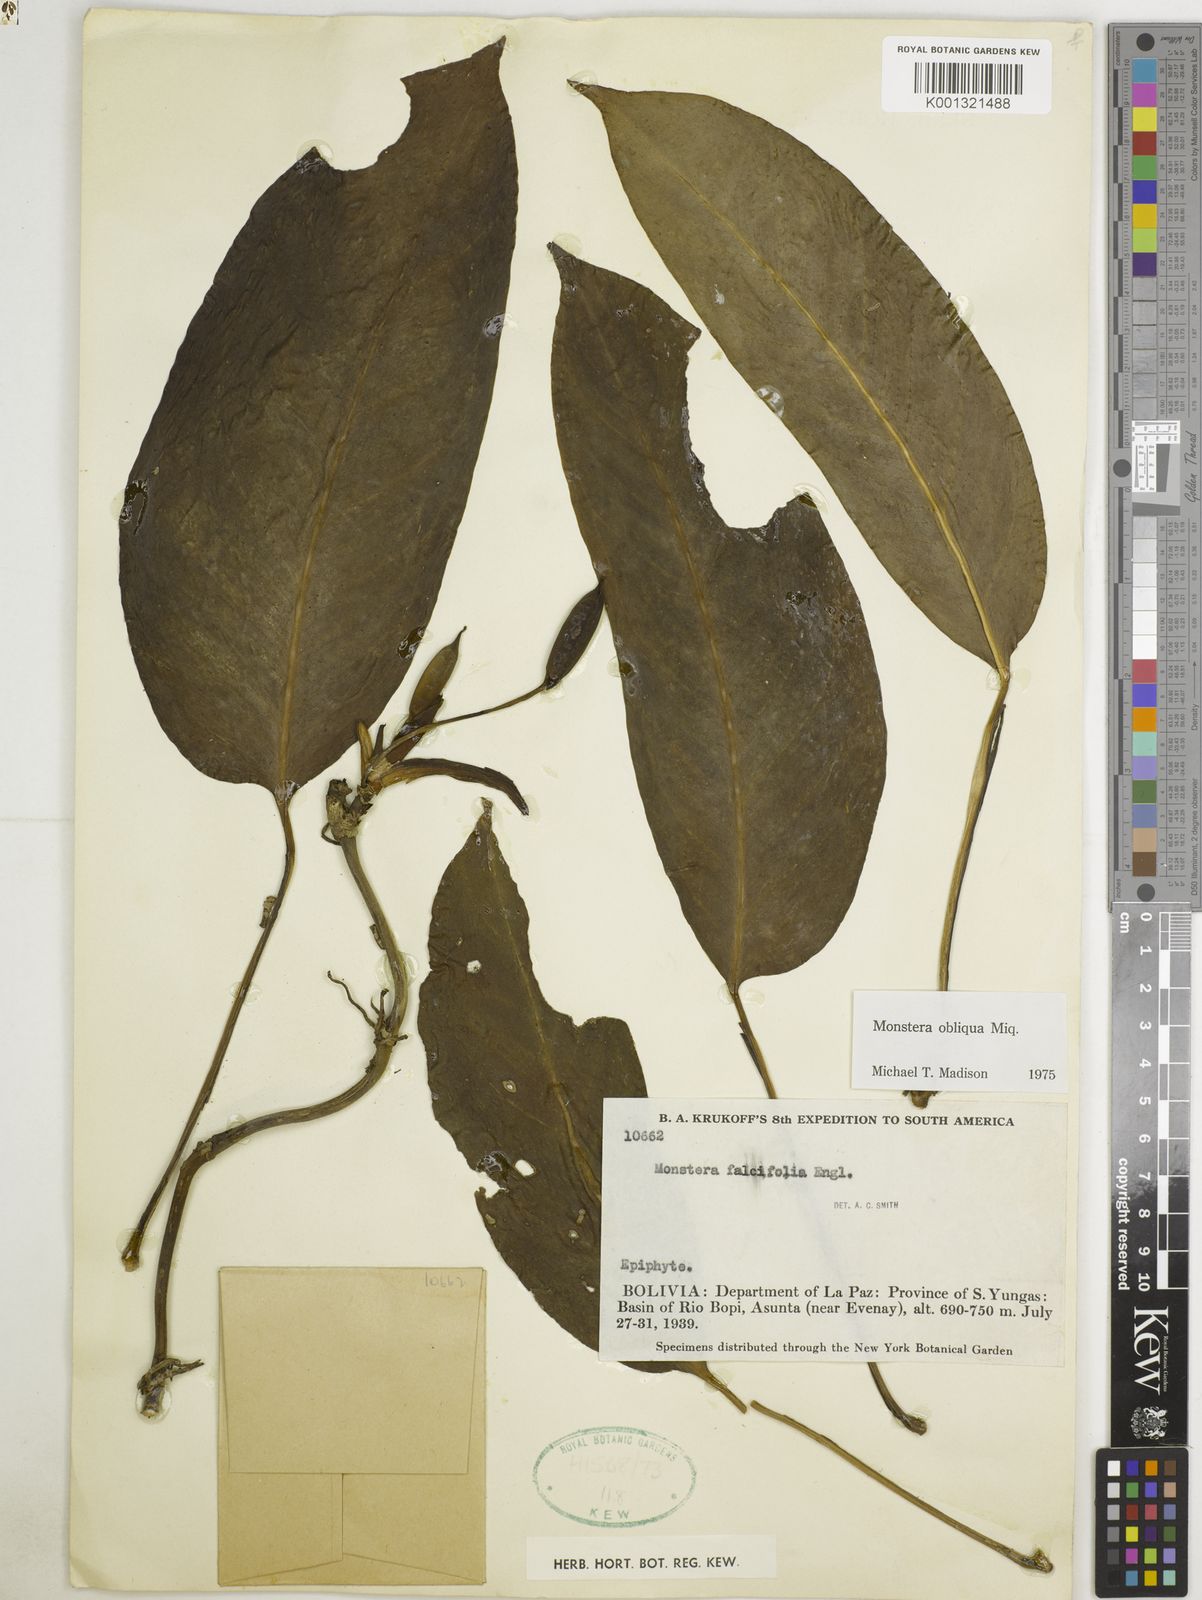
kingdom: Plantae
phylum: Tracheophyta
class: Liliopsida
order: Alismatales
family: Araceae
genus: Monstera
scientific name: Monstera obliqua
